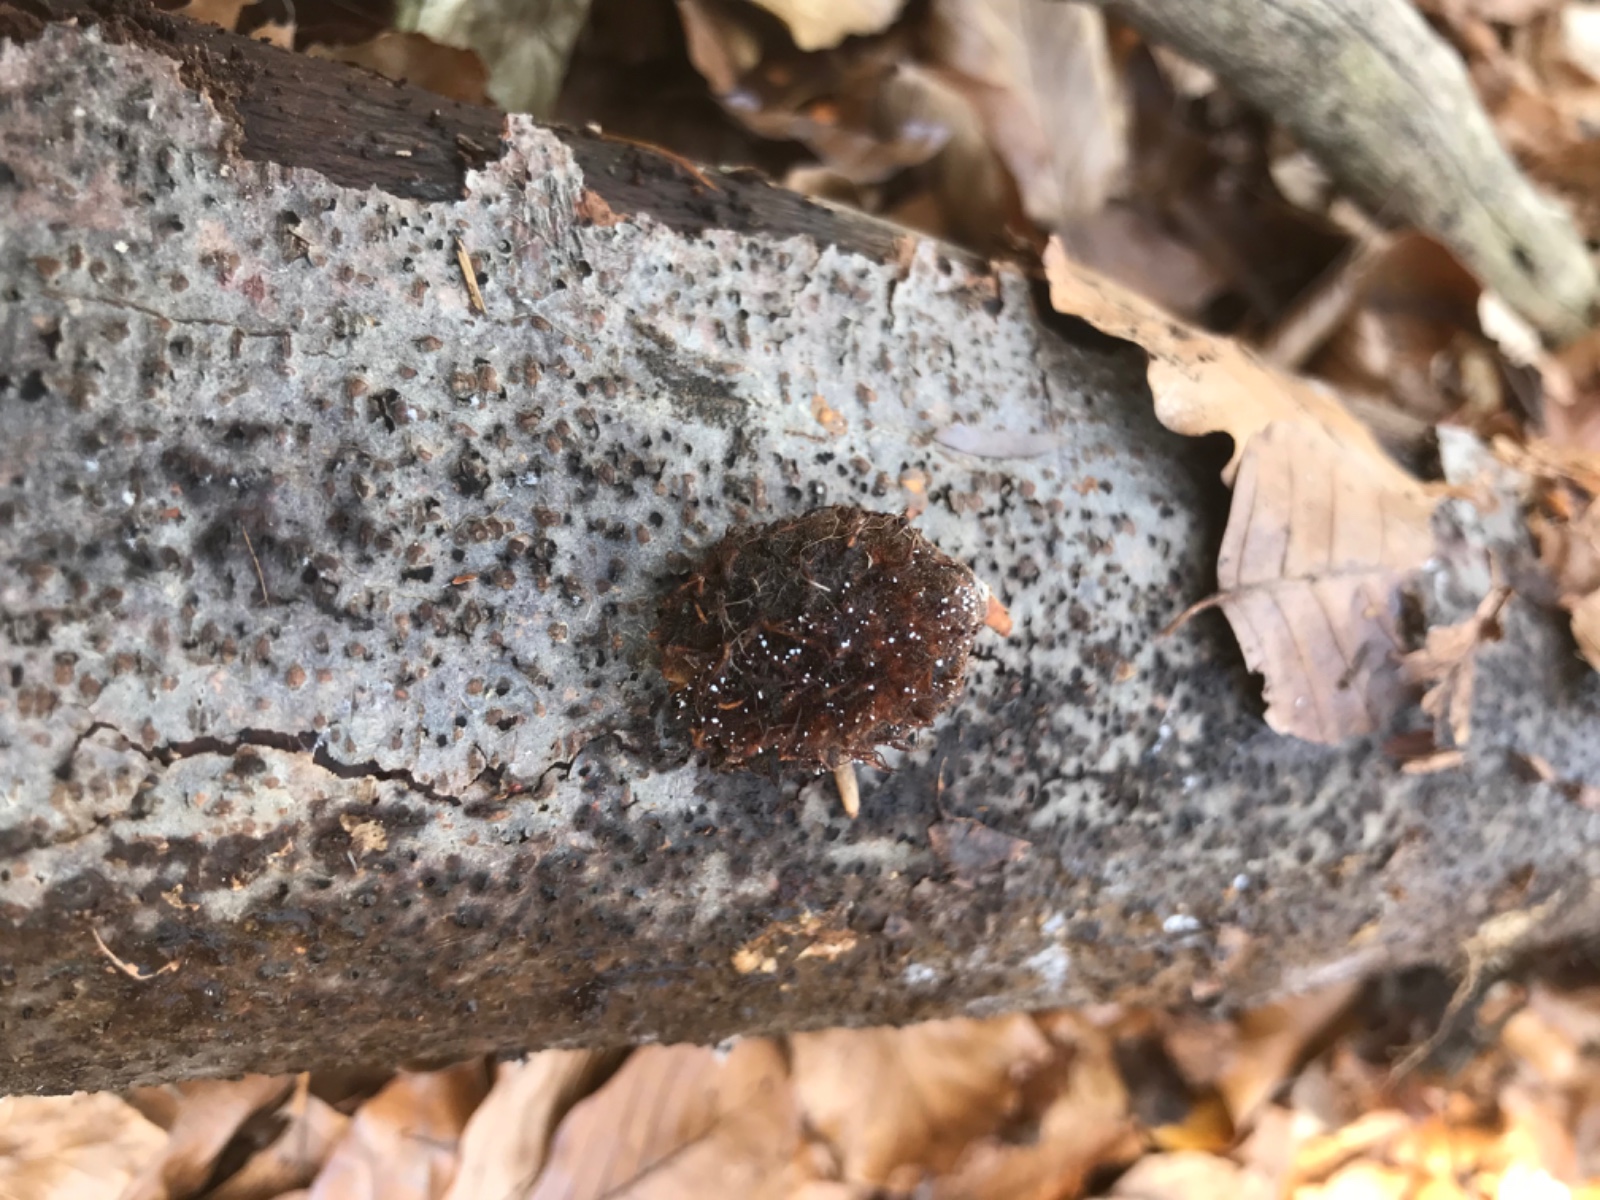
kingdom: Fungi
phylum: Ascomycota
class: Sordariomycetes
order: Xylariales
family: Xylariaceae
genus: Xylaria
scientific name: Xylaria carpophila
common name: bogskål-stødsvamp
